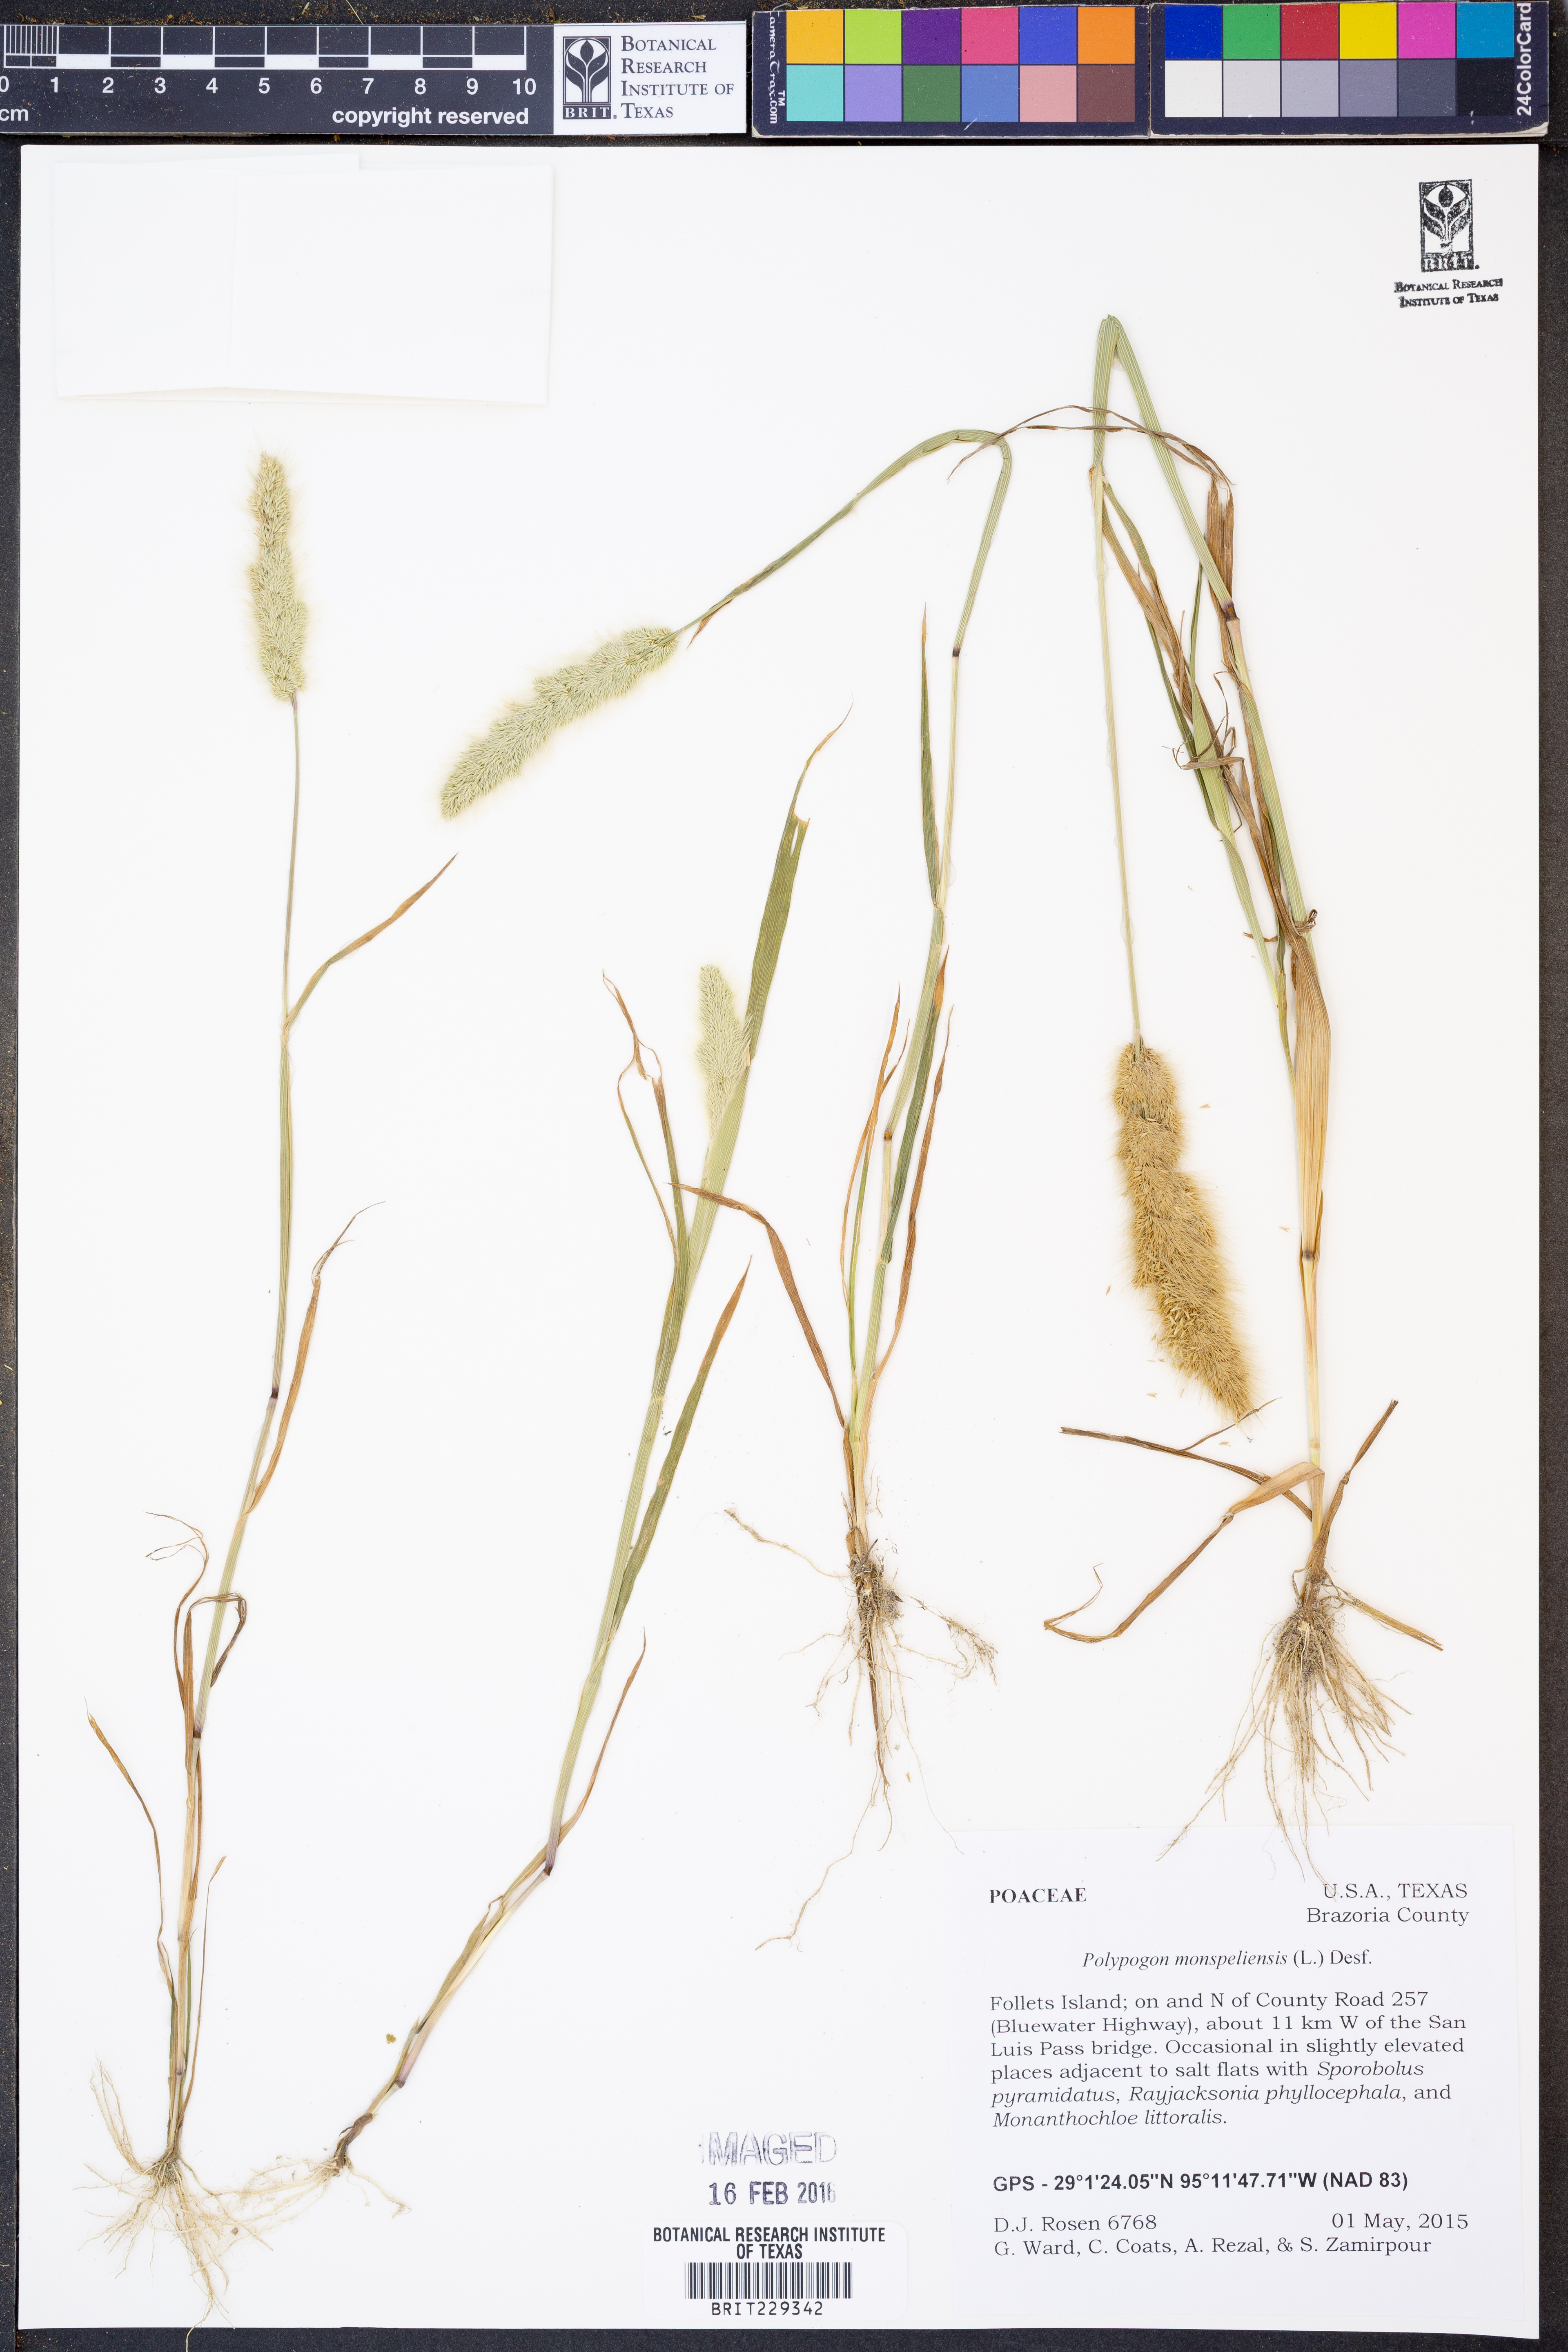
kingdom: Plantae
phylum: Tracheophyta
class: Liliopsida
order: Poales
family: Poaceae
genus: Polypogon
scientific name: Polypogon monspeliensis
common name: Annual rabbitsfoot grass
